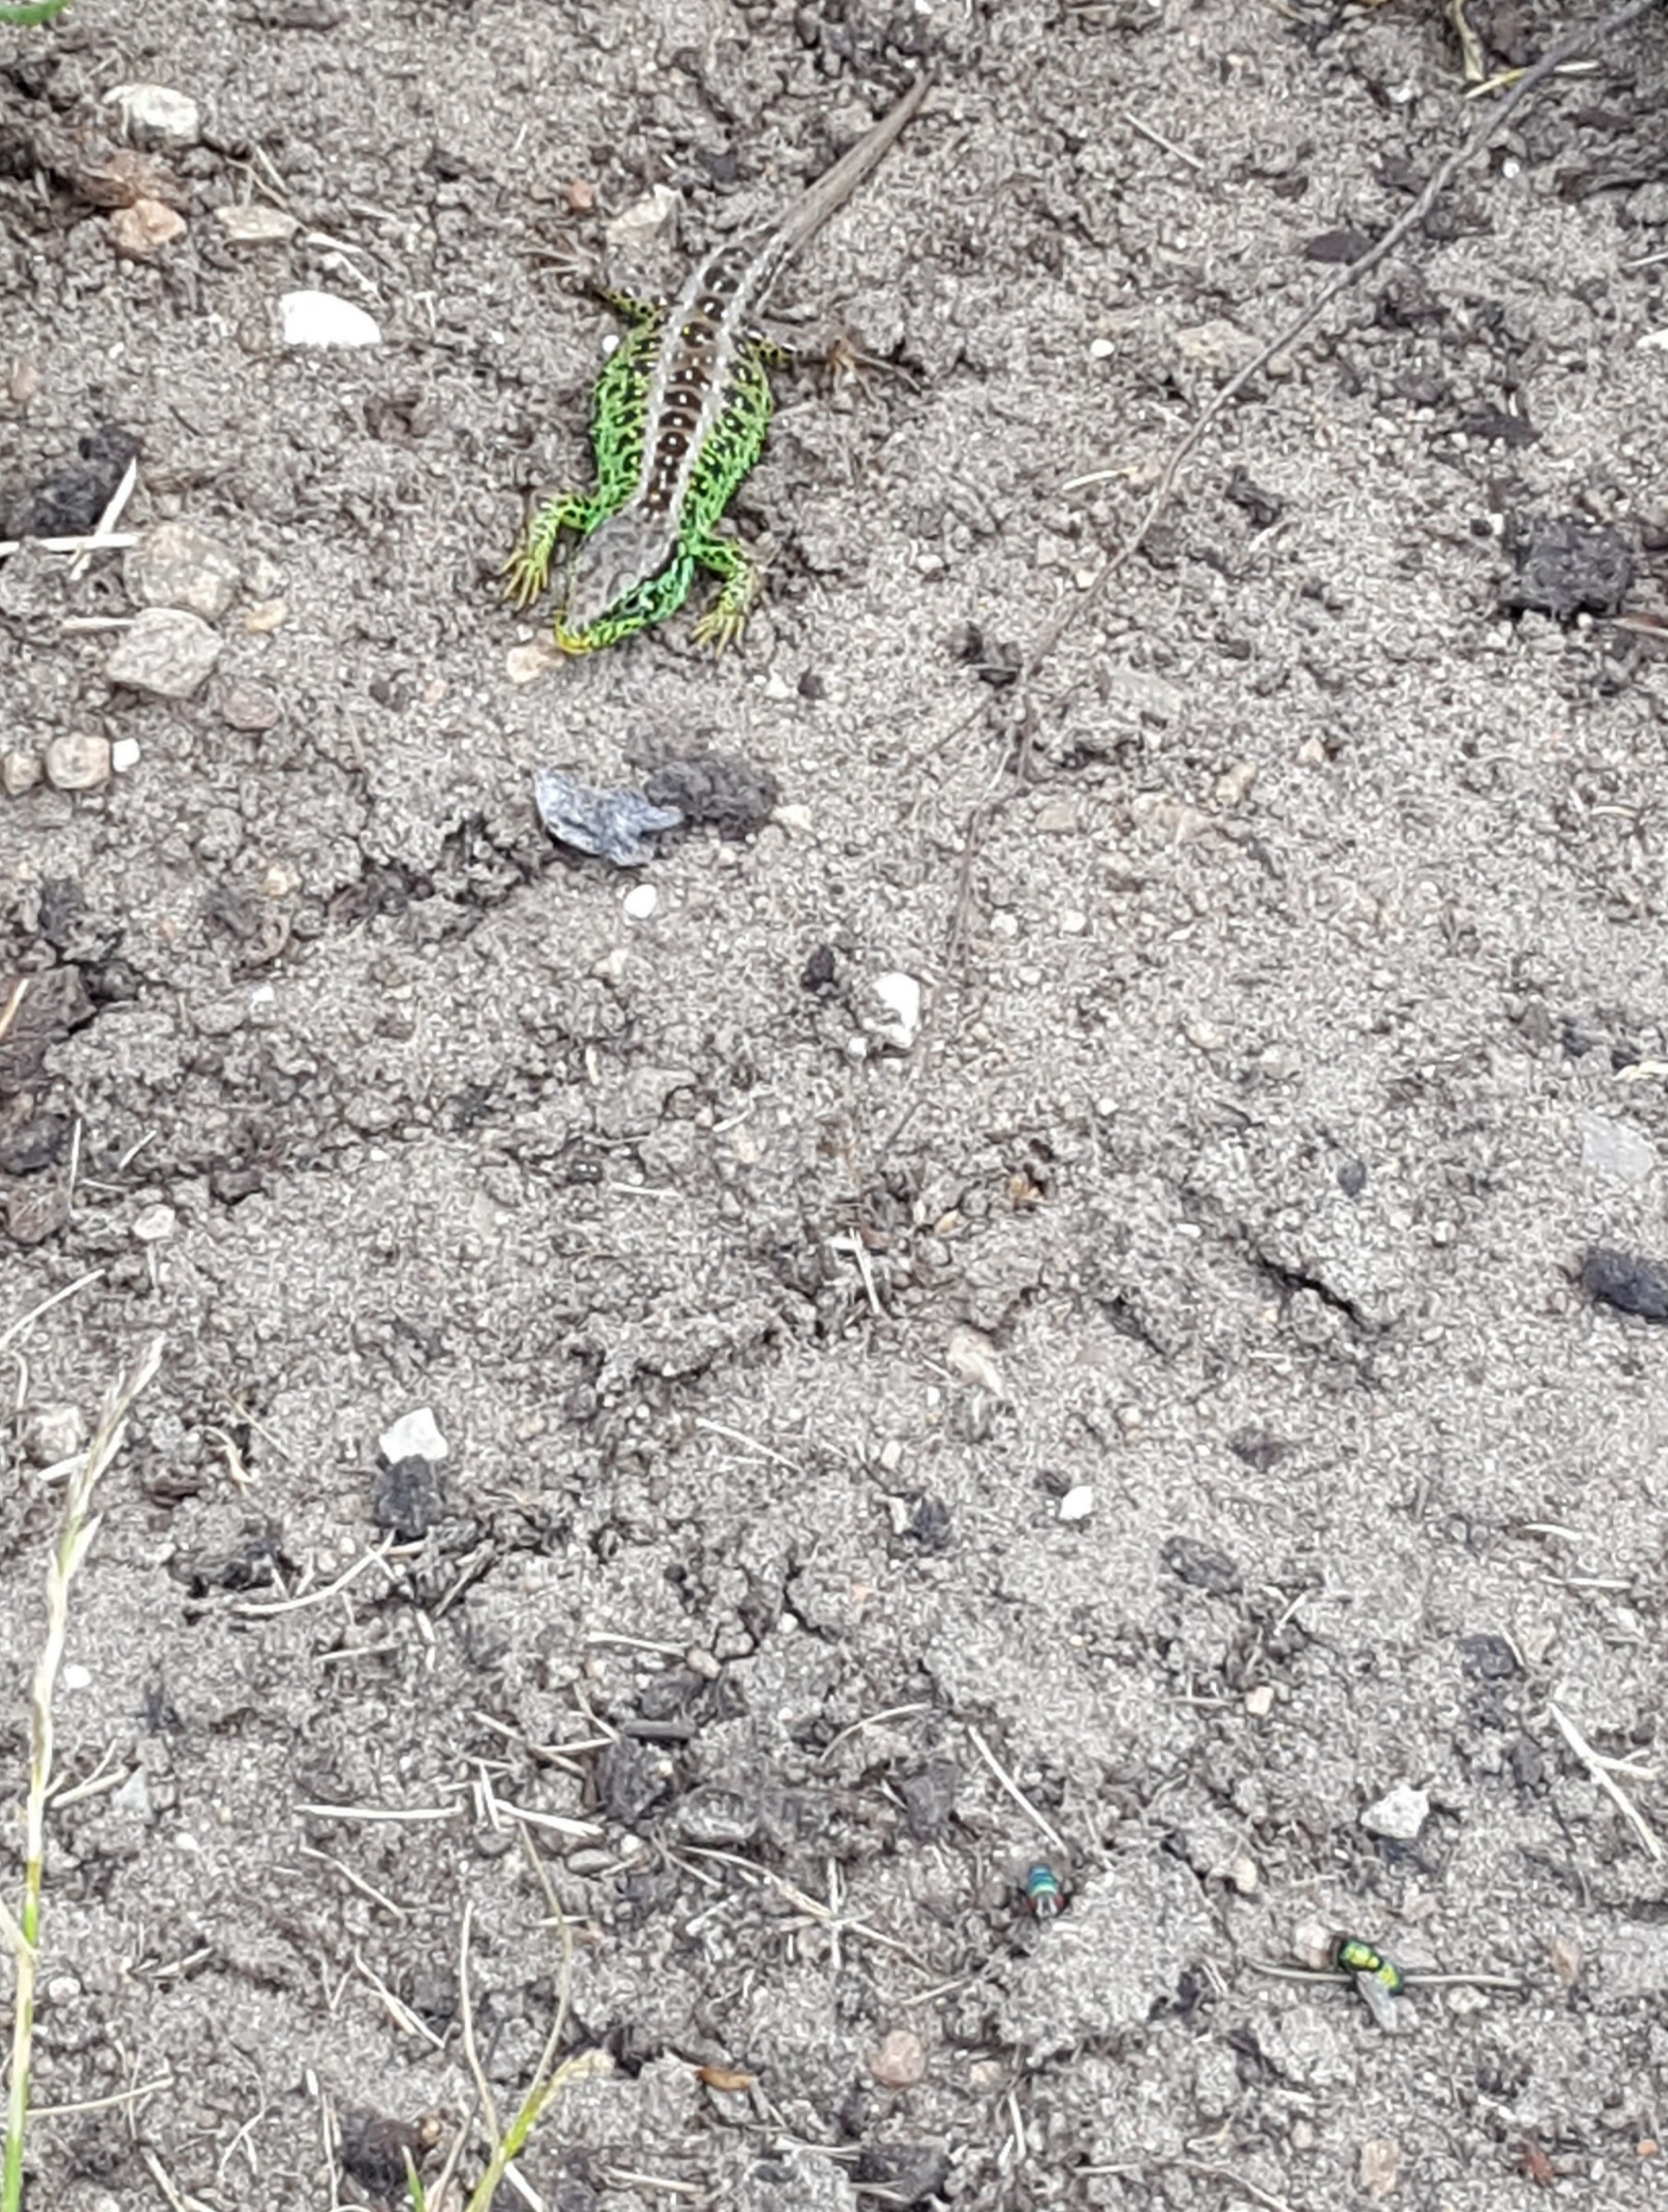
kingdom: Animalia
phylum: Chordata
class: Squamata
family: Lacertidae
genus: Lacerta
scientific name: Lacerta agilis
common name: Markfirben
